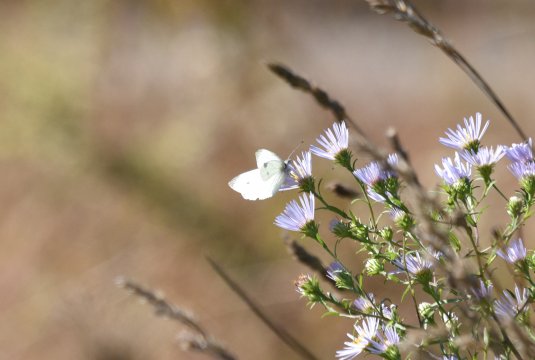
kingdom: Animalia
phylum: Arthropoda
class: Insecta
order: Lepidoptera
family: Pieridae
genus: Pieris
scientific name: Pieris rapae
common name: Cabbage White
